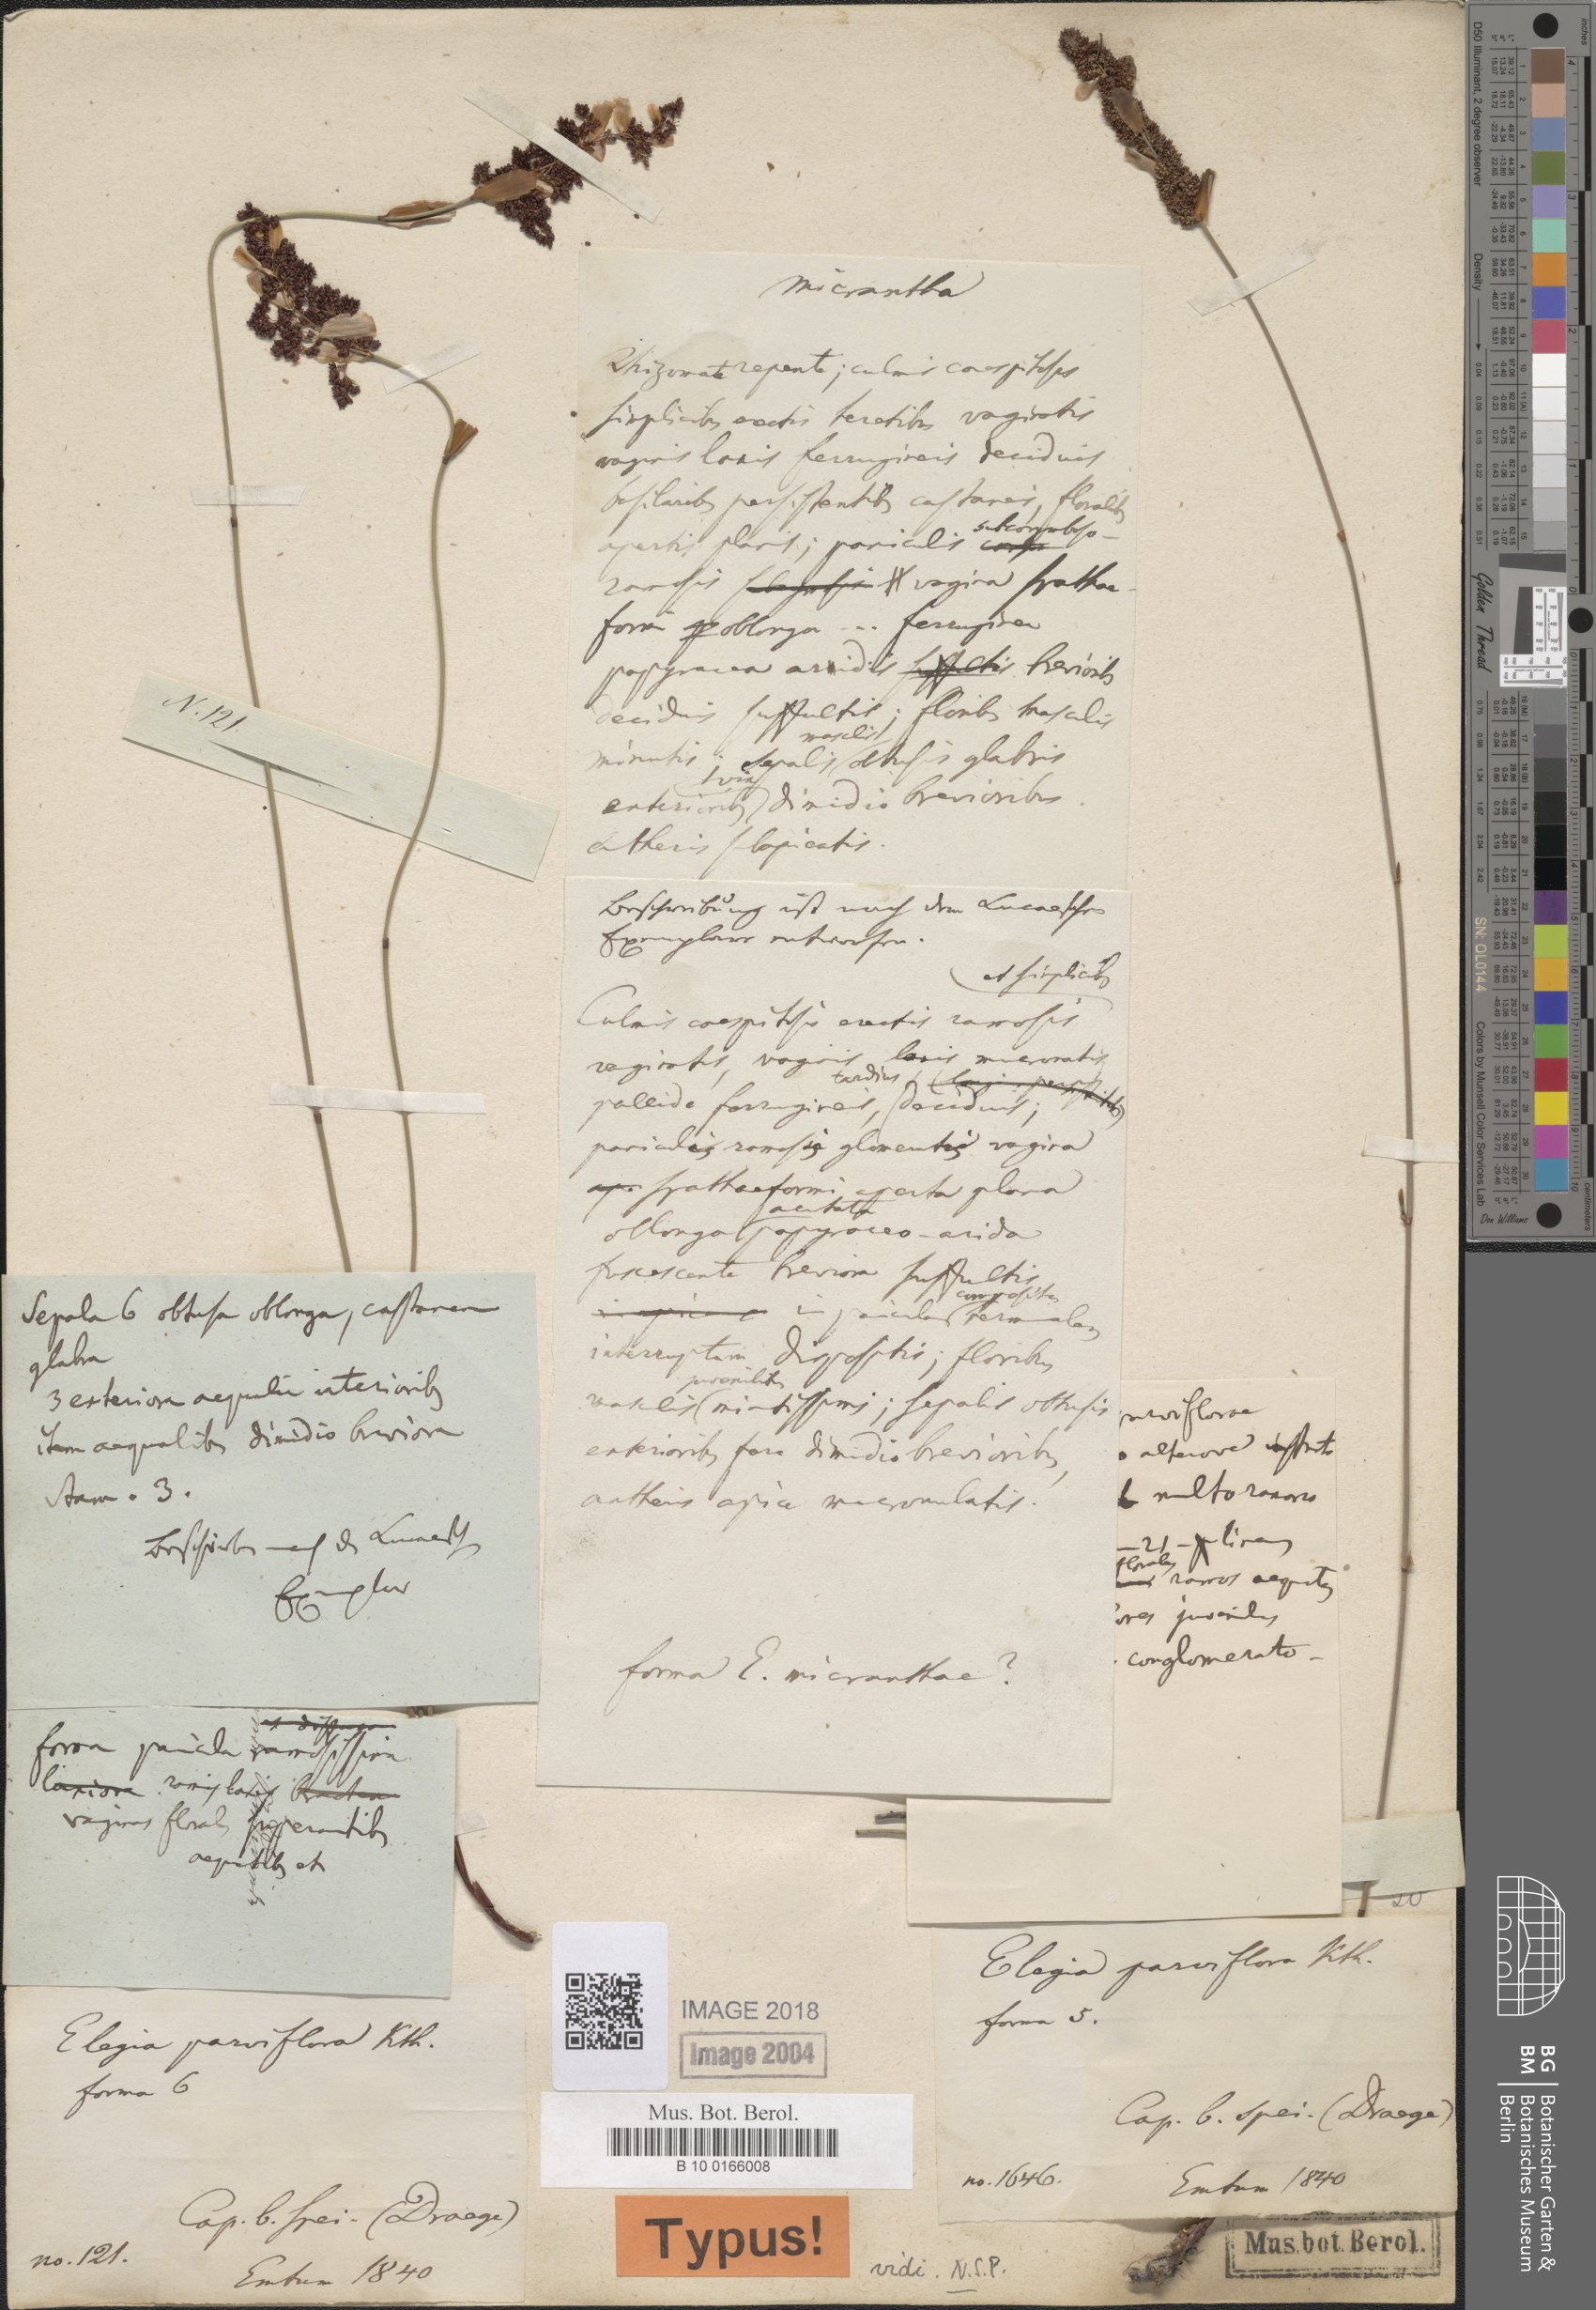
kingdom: Plantae
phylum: Tracheophyta
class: Liliopsida
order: Poales
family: Restionaceae
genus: Cannomois
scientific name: Cannomois parviflora
